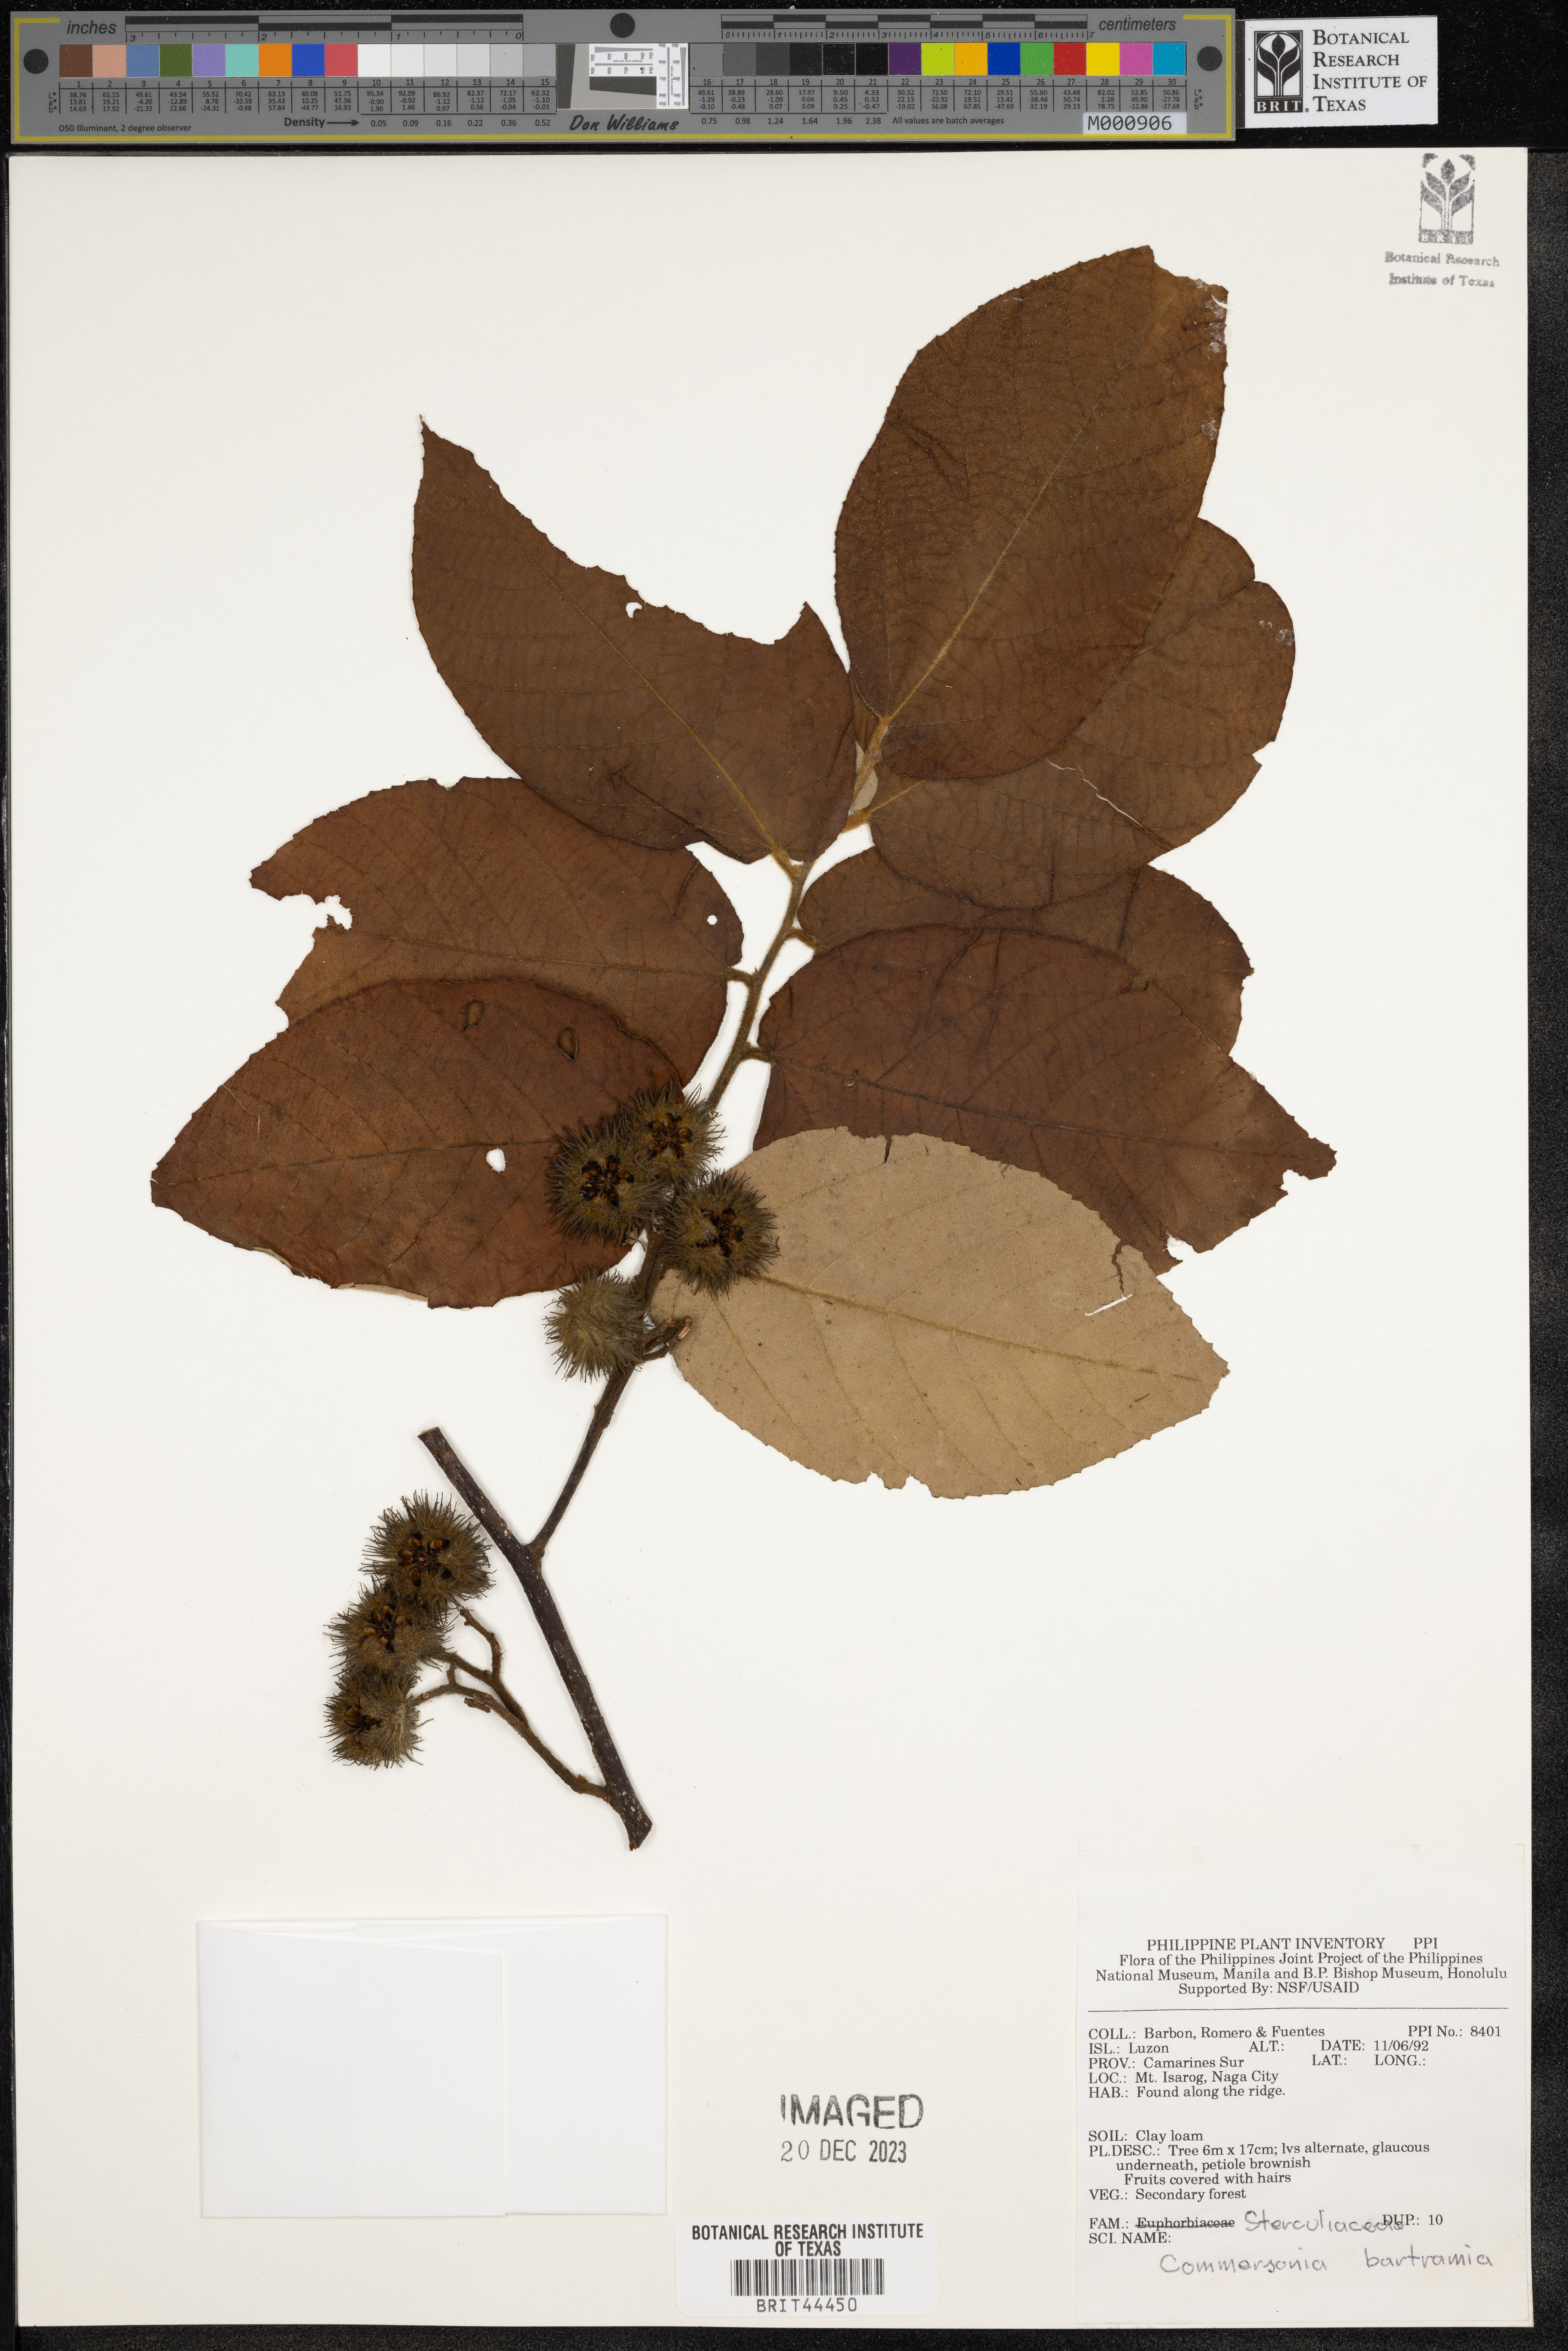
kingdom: Plantae
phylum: Tracheophyta
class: Magnoliopsida
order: Malvales
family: Malvaceae
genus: Commersonia
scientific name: Commersonia bartramia
